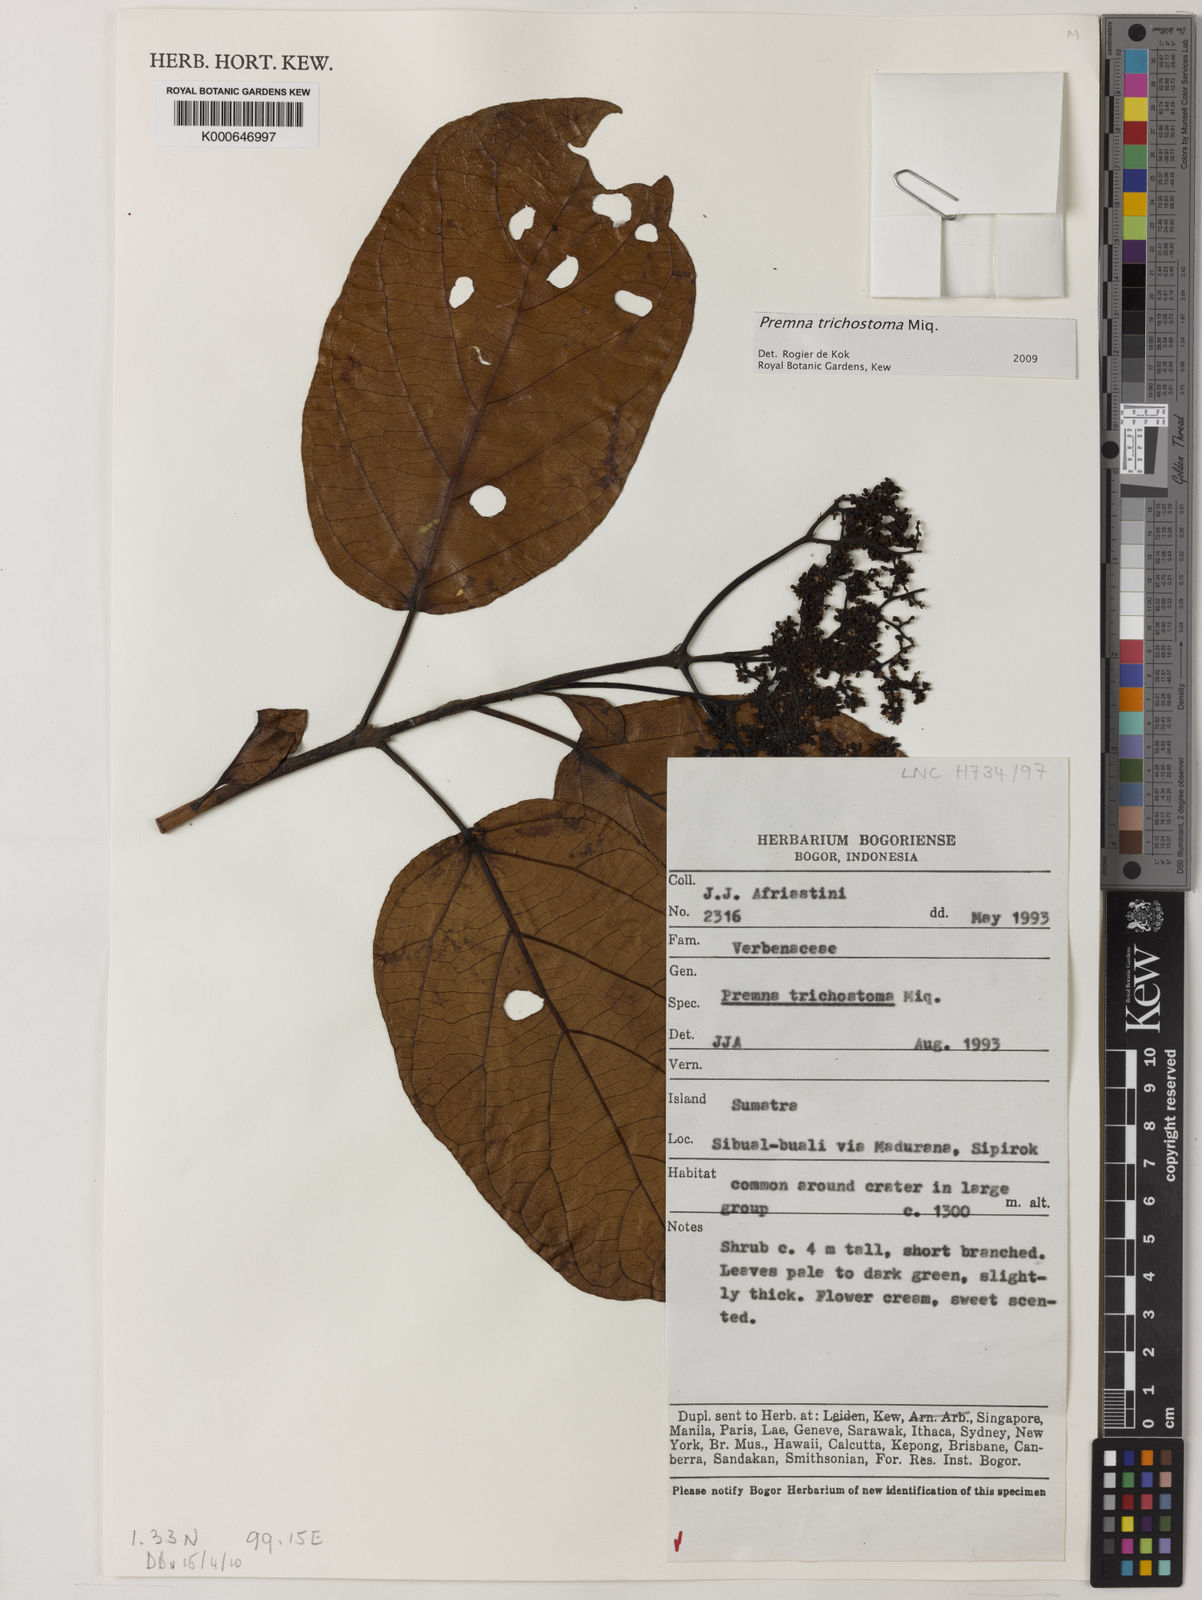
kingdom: Plantae
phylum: Tracheophyta
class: Magnoliopsida
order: Lamiales
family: Lamiaceae
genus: Premna
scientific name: Premna trichostoma
